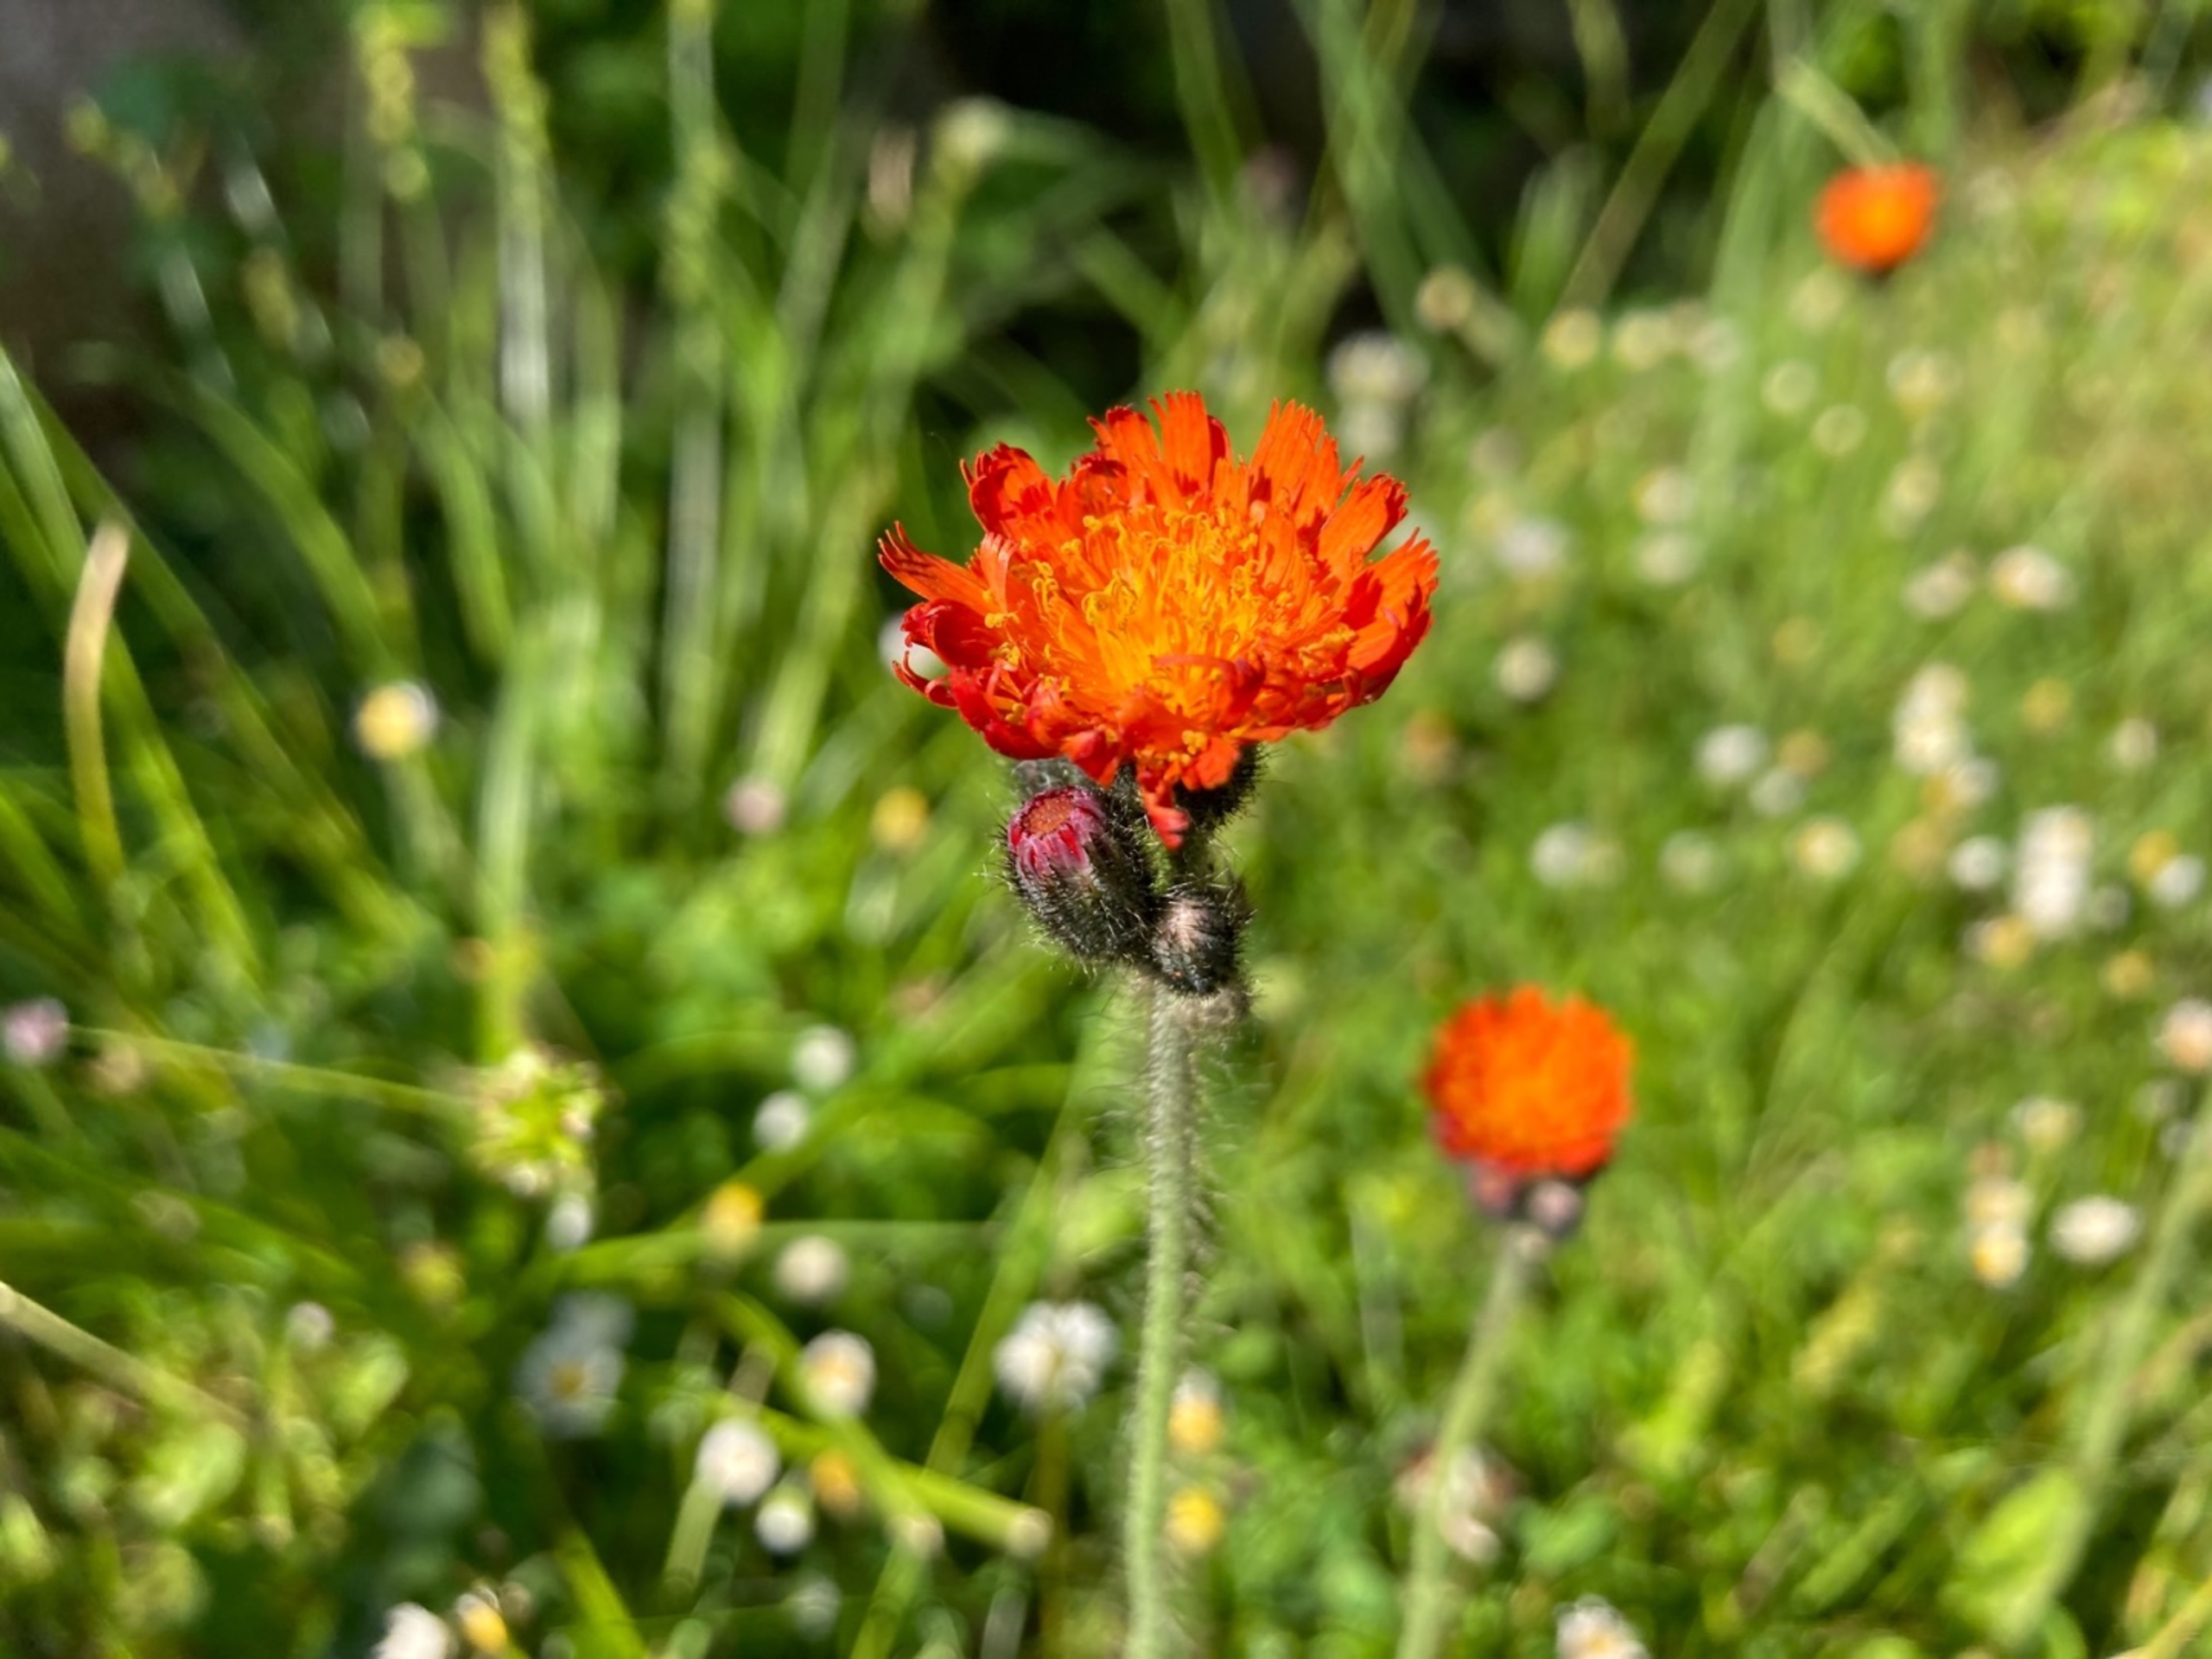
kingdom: Plantae
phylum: Tracheophyta
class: Magnoliopsida
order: Asterales
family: Asteraceae
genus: Pilosella
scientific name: Pilosella aurantiaca
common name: Pomerans-høgeurt
